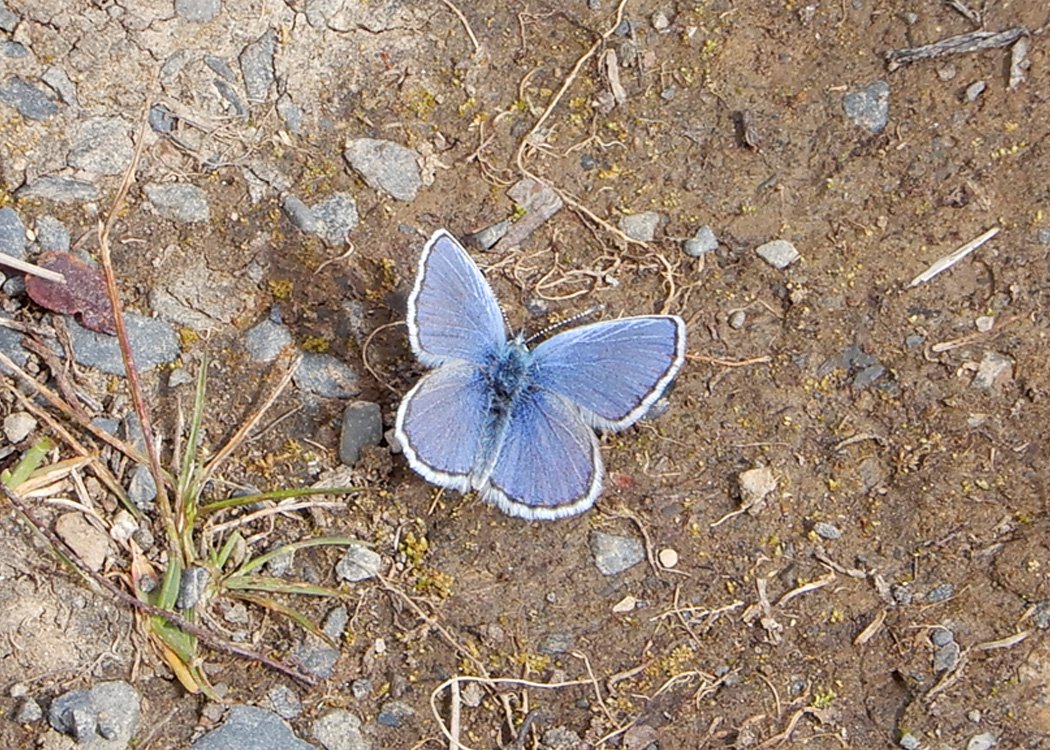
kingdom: Animalia
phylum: Arthropoda
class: Insecta
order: Lepidoptera
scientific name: Lepidoptera
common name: Butterflies
